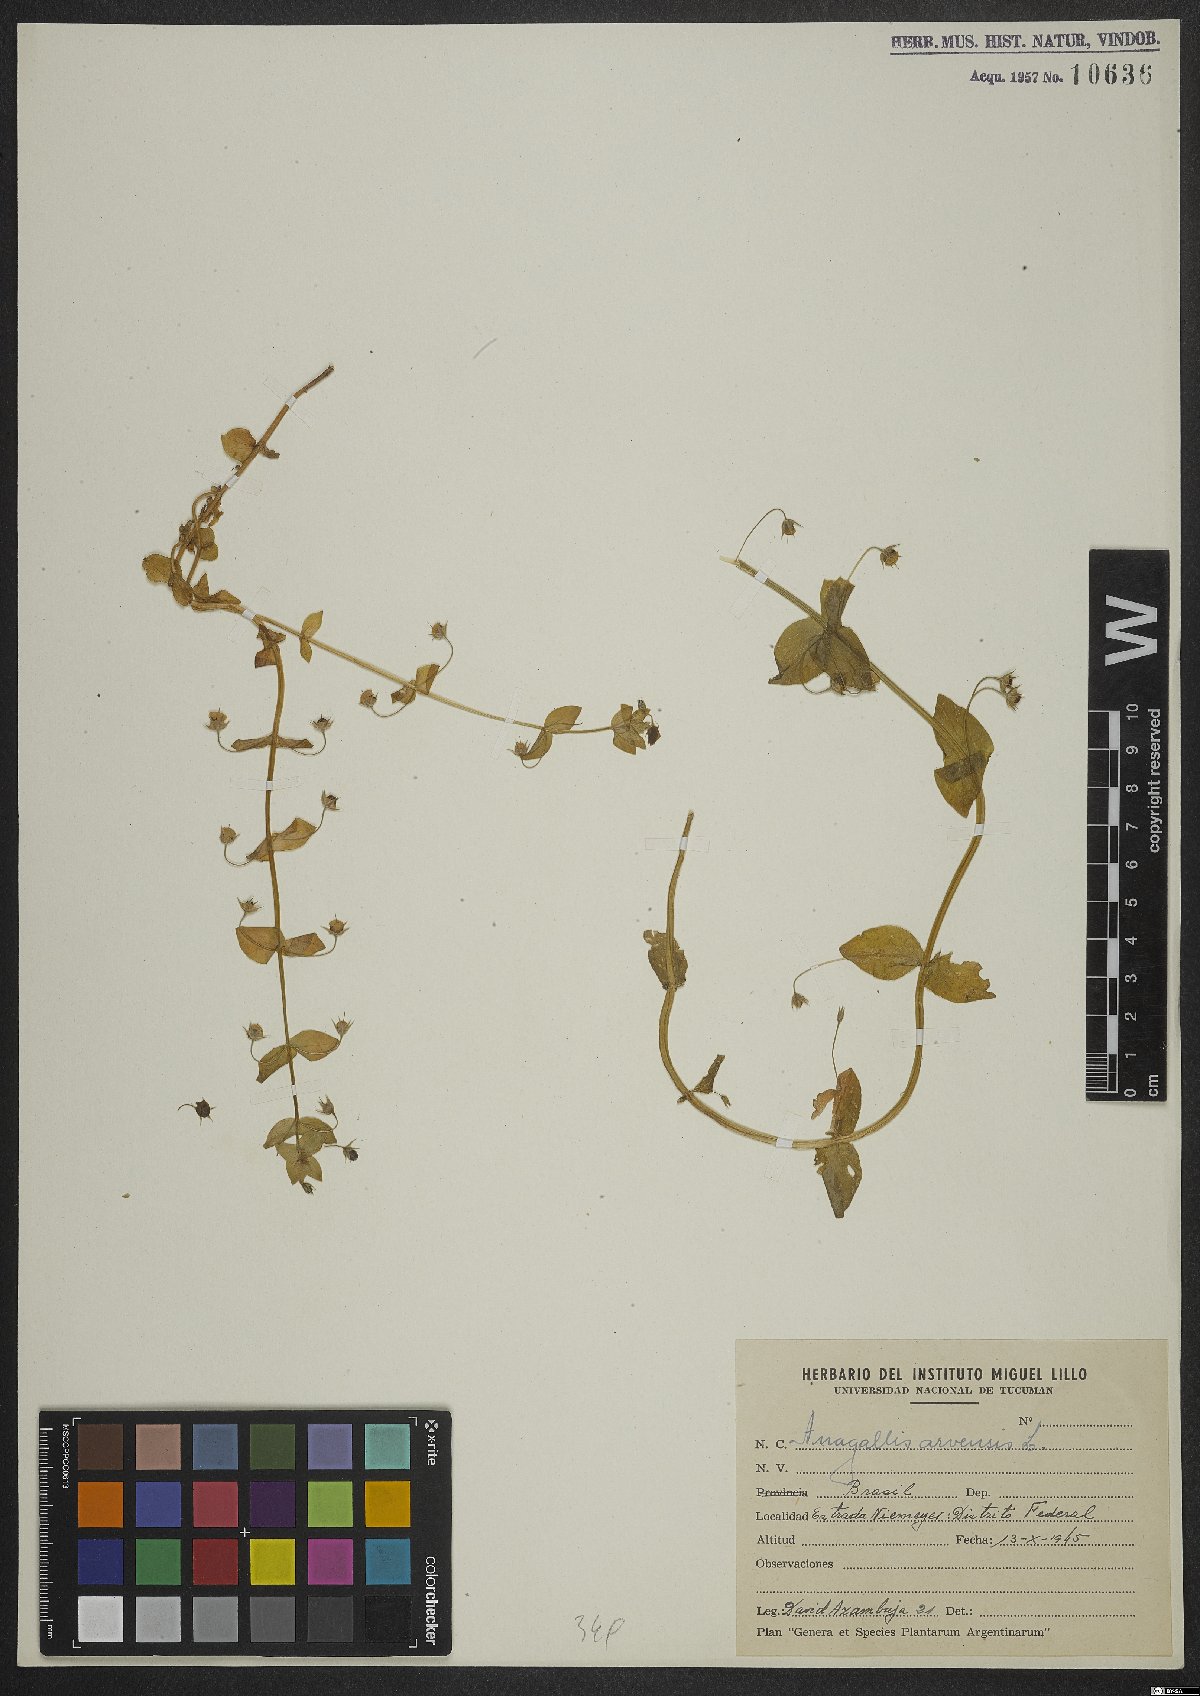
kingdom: Plantae
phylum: Tracheophyta
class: Magnoliopsida
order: Ericales
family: Primulaceae
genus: Lysimachia
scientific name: Lysimachia arvensis
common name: Scarlet pimpernel
